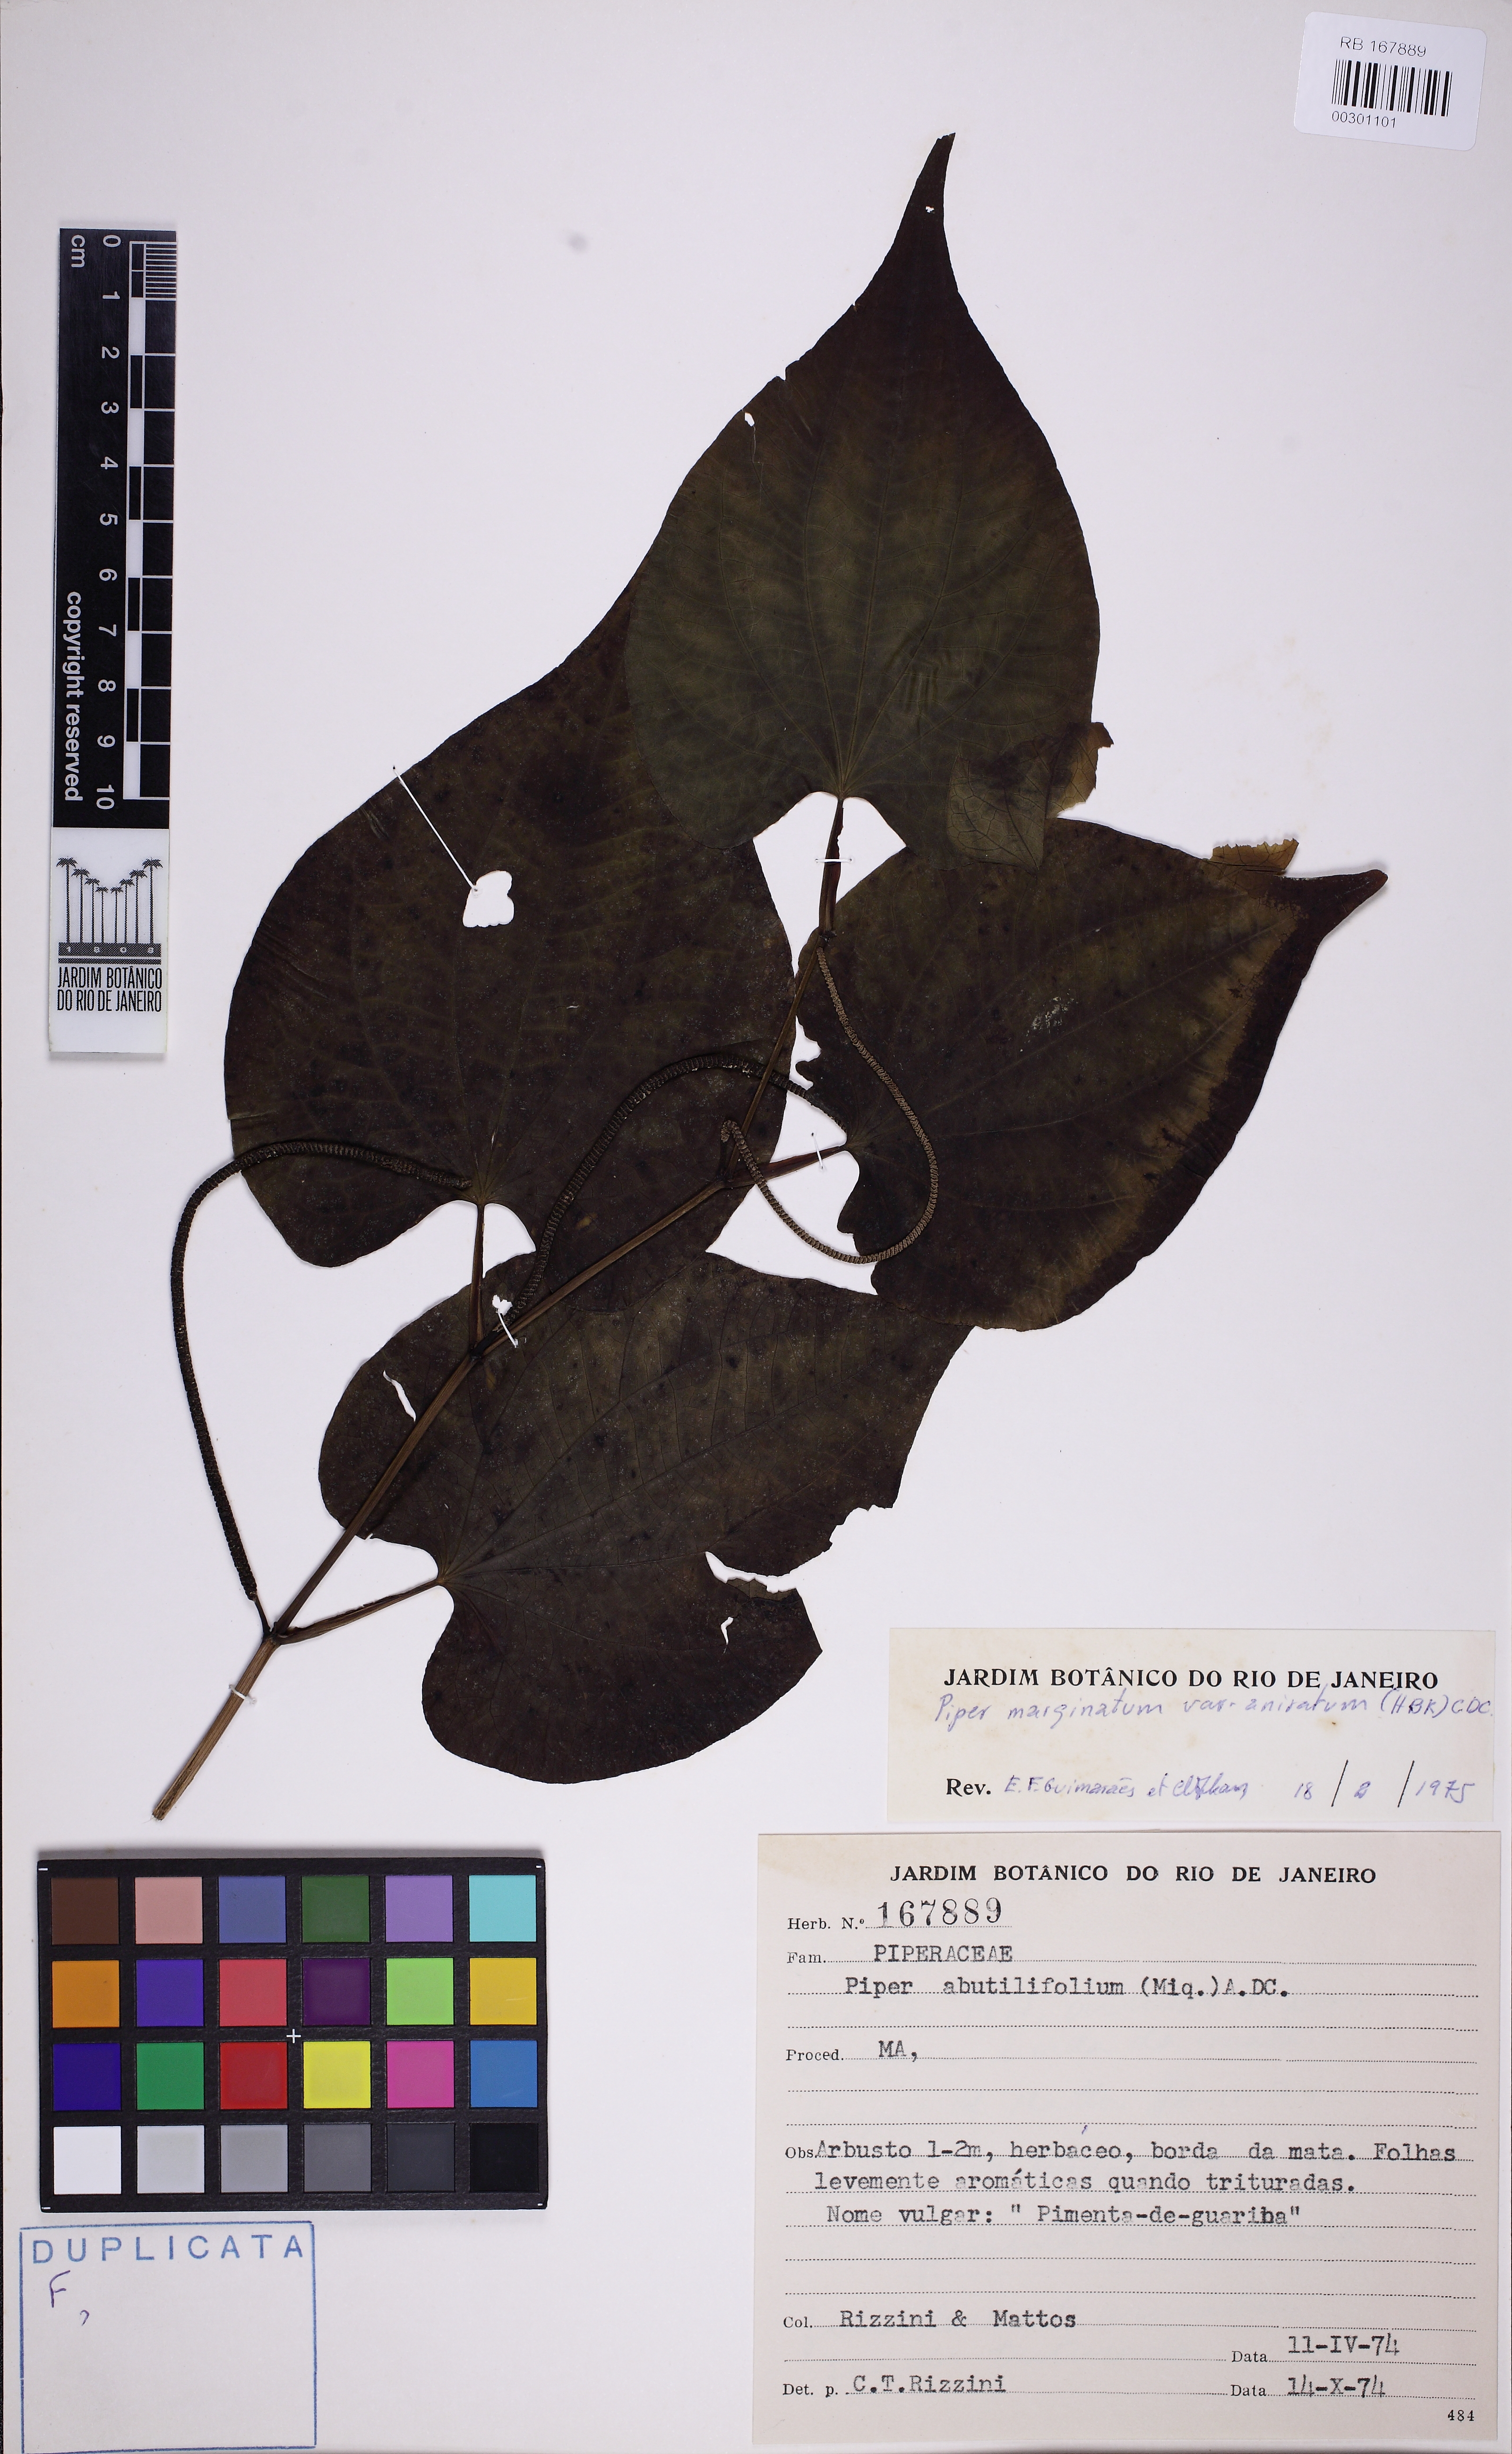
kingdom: Plantae
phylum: Tracheophyta
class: Magnoliopsida
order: Piperales
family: Piperaceae
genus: Piper
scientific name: Piper marginatum
